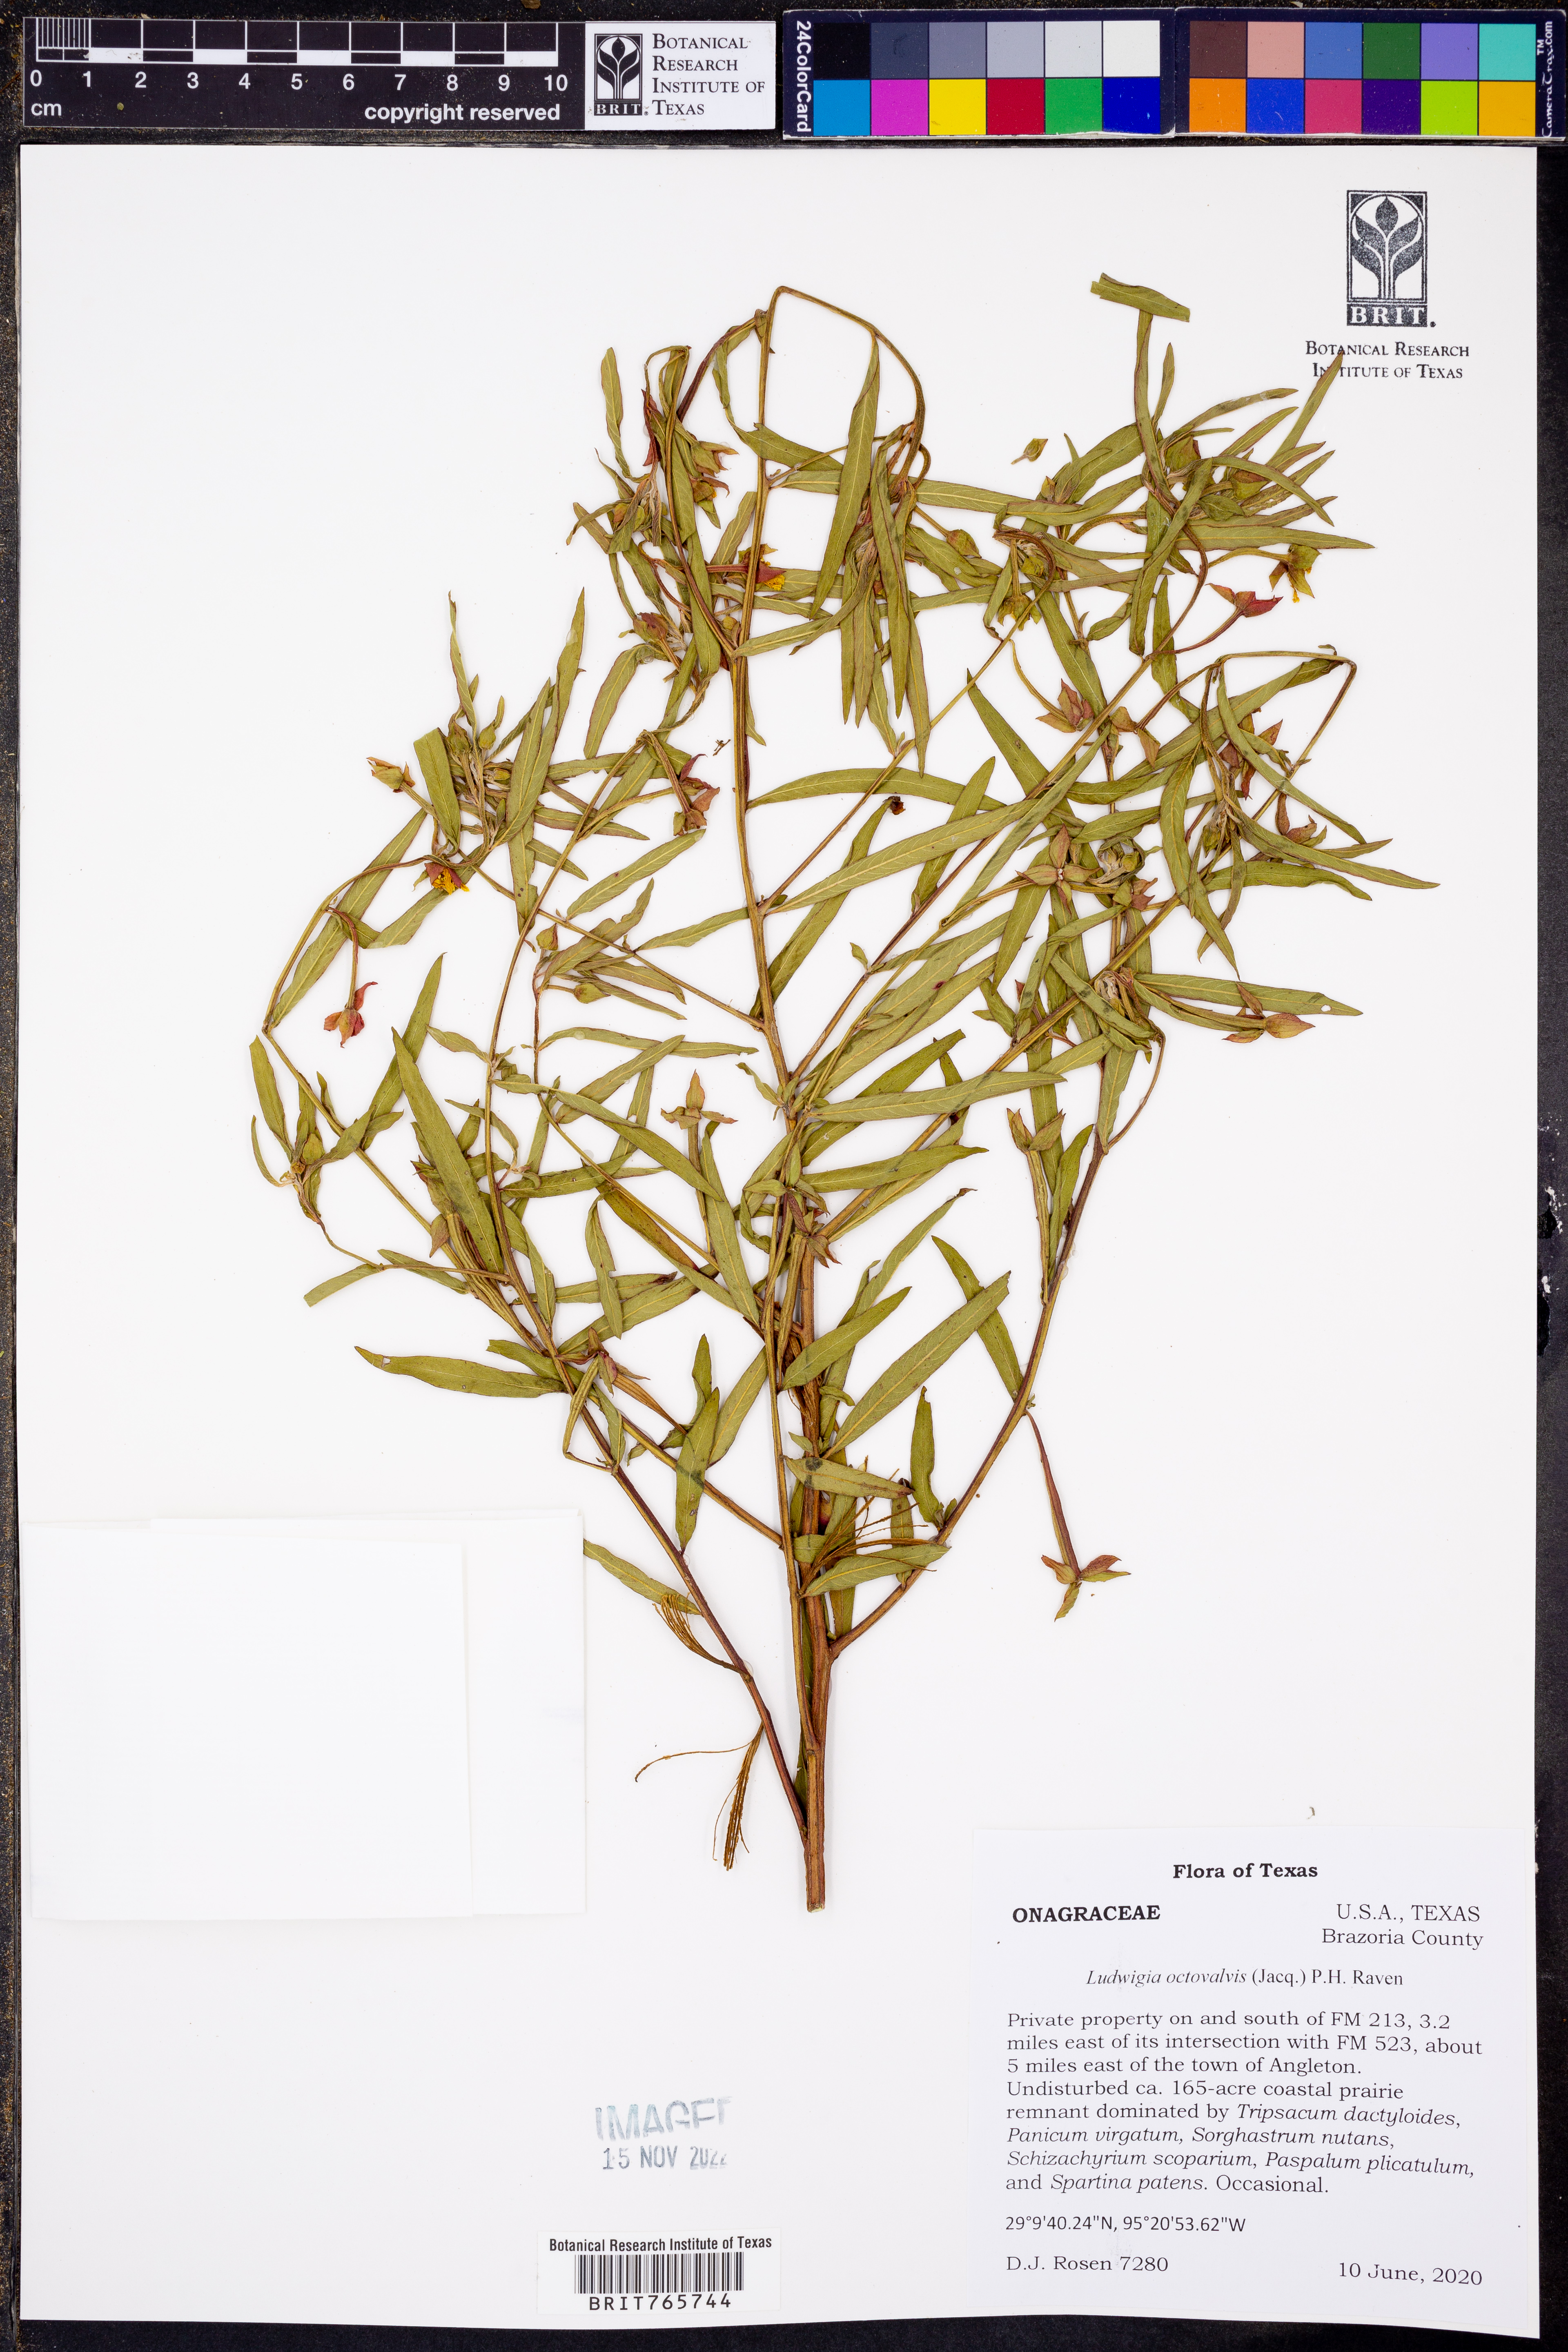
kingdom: Plantae
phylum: Tracheophyta
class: Magnoliopsida
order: Myrtales
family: Onagraceae
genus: Ludwigia
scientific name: Ludwigia octovalvis
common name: Water-primrose
